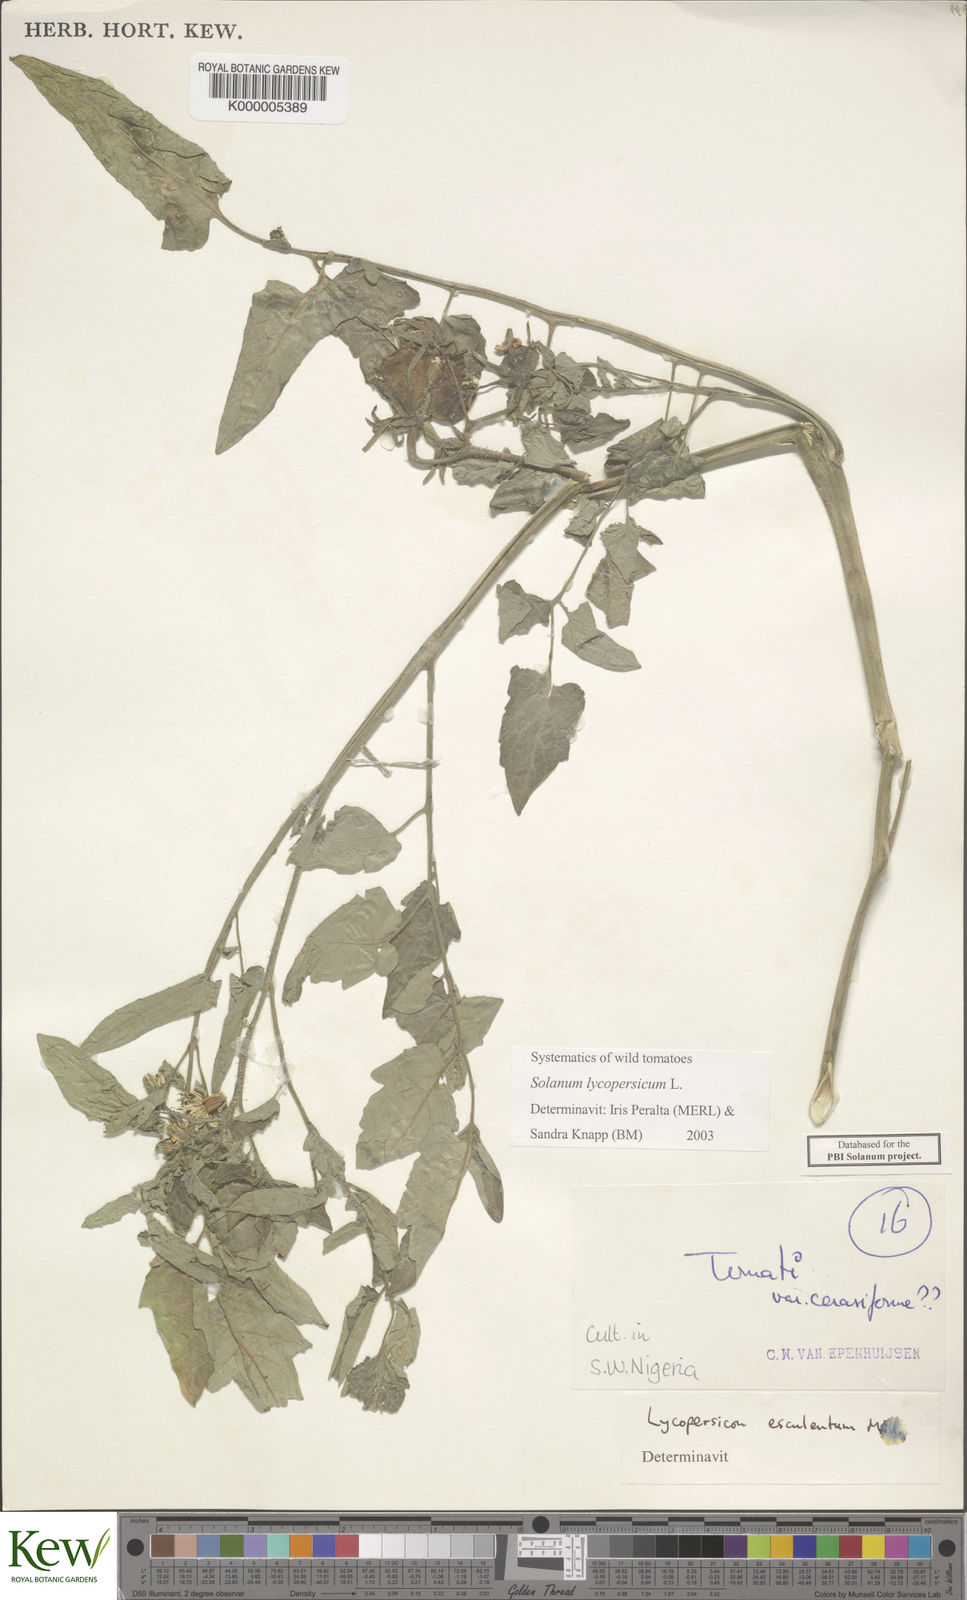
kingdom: Plantae
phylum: Tracheophyta
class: Magnoliopsida
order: Solanales
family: Solanaceae
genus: Solanum
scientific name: Solanum lycopersicum
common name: Garden tomato
